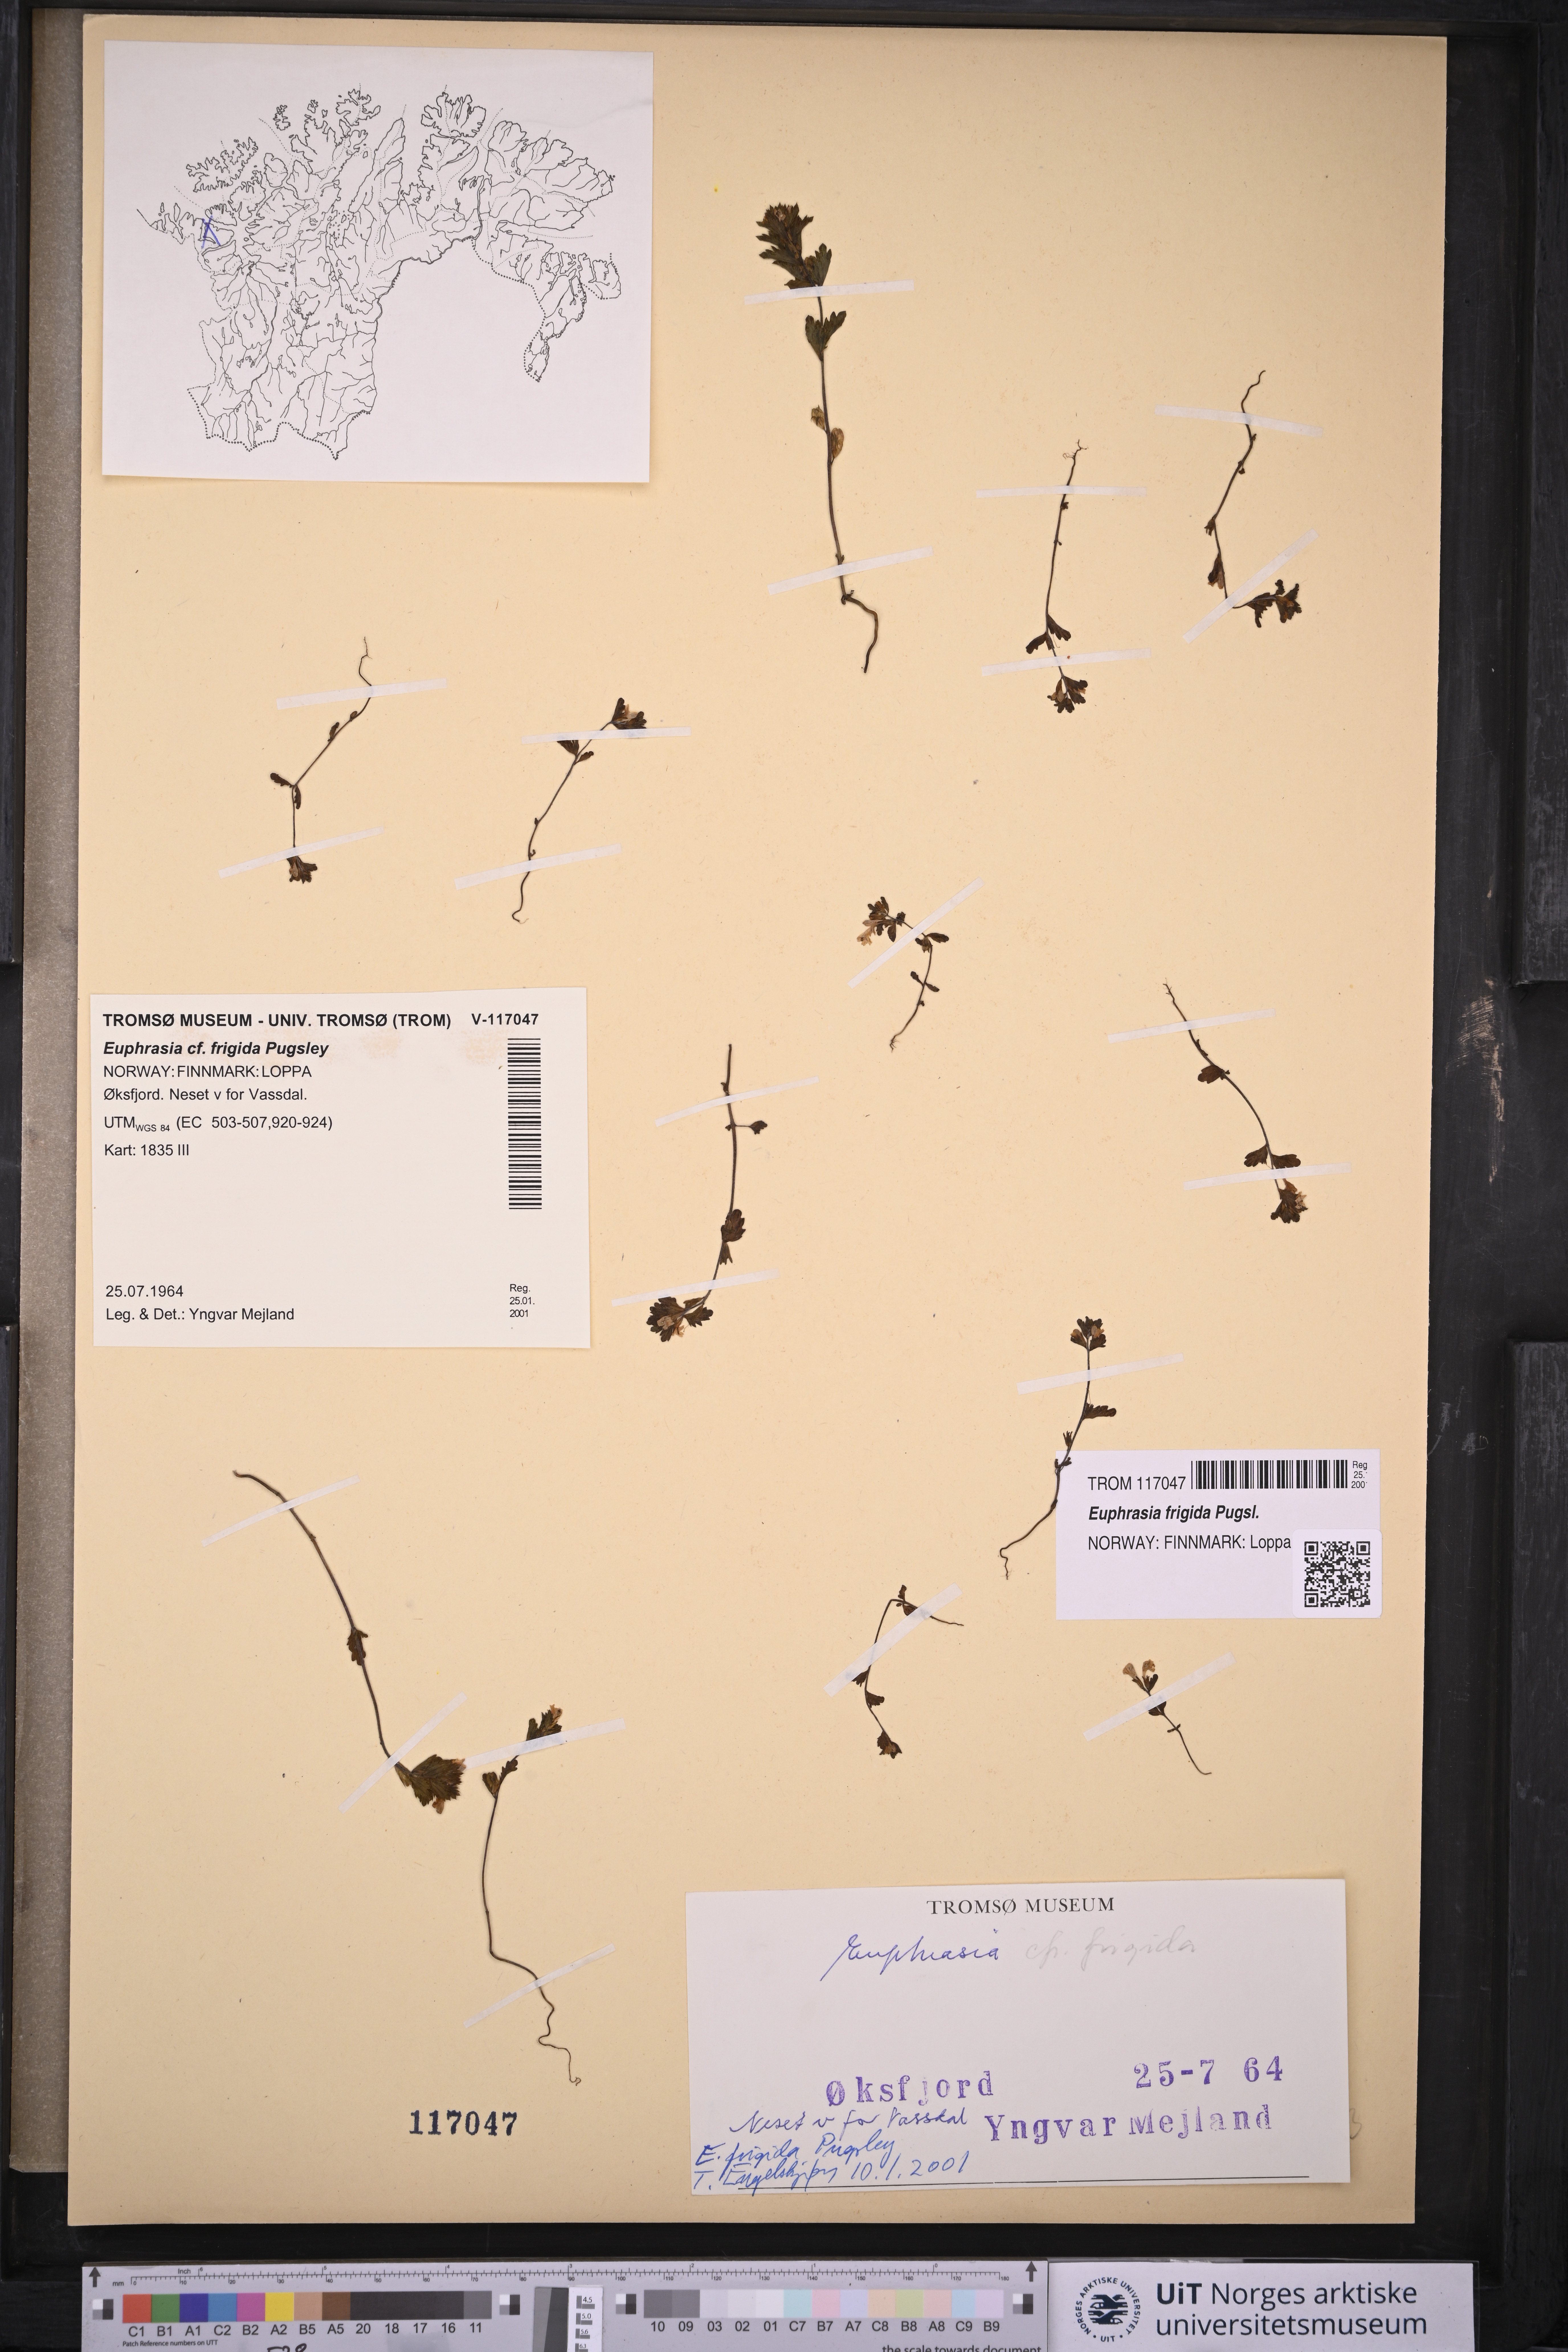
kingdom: Plantae
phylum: Tracheophyta
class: Magnoliopsida
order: Lamiales
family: Orobanchaceae
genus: Euphrasia
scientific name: Euphrasia frigida
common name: An eyebright
